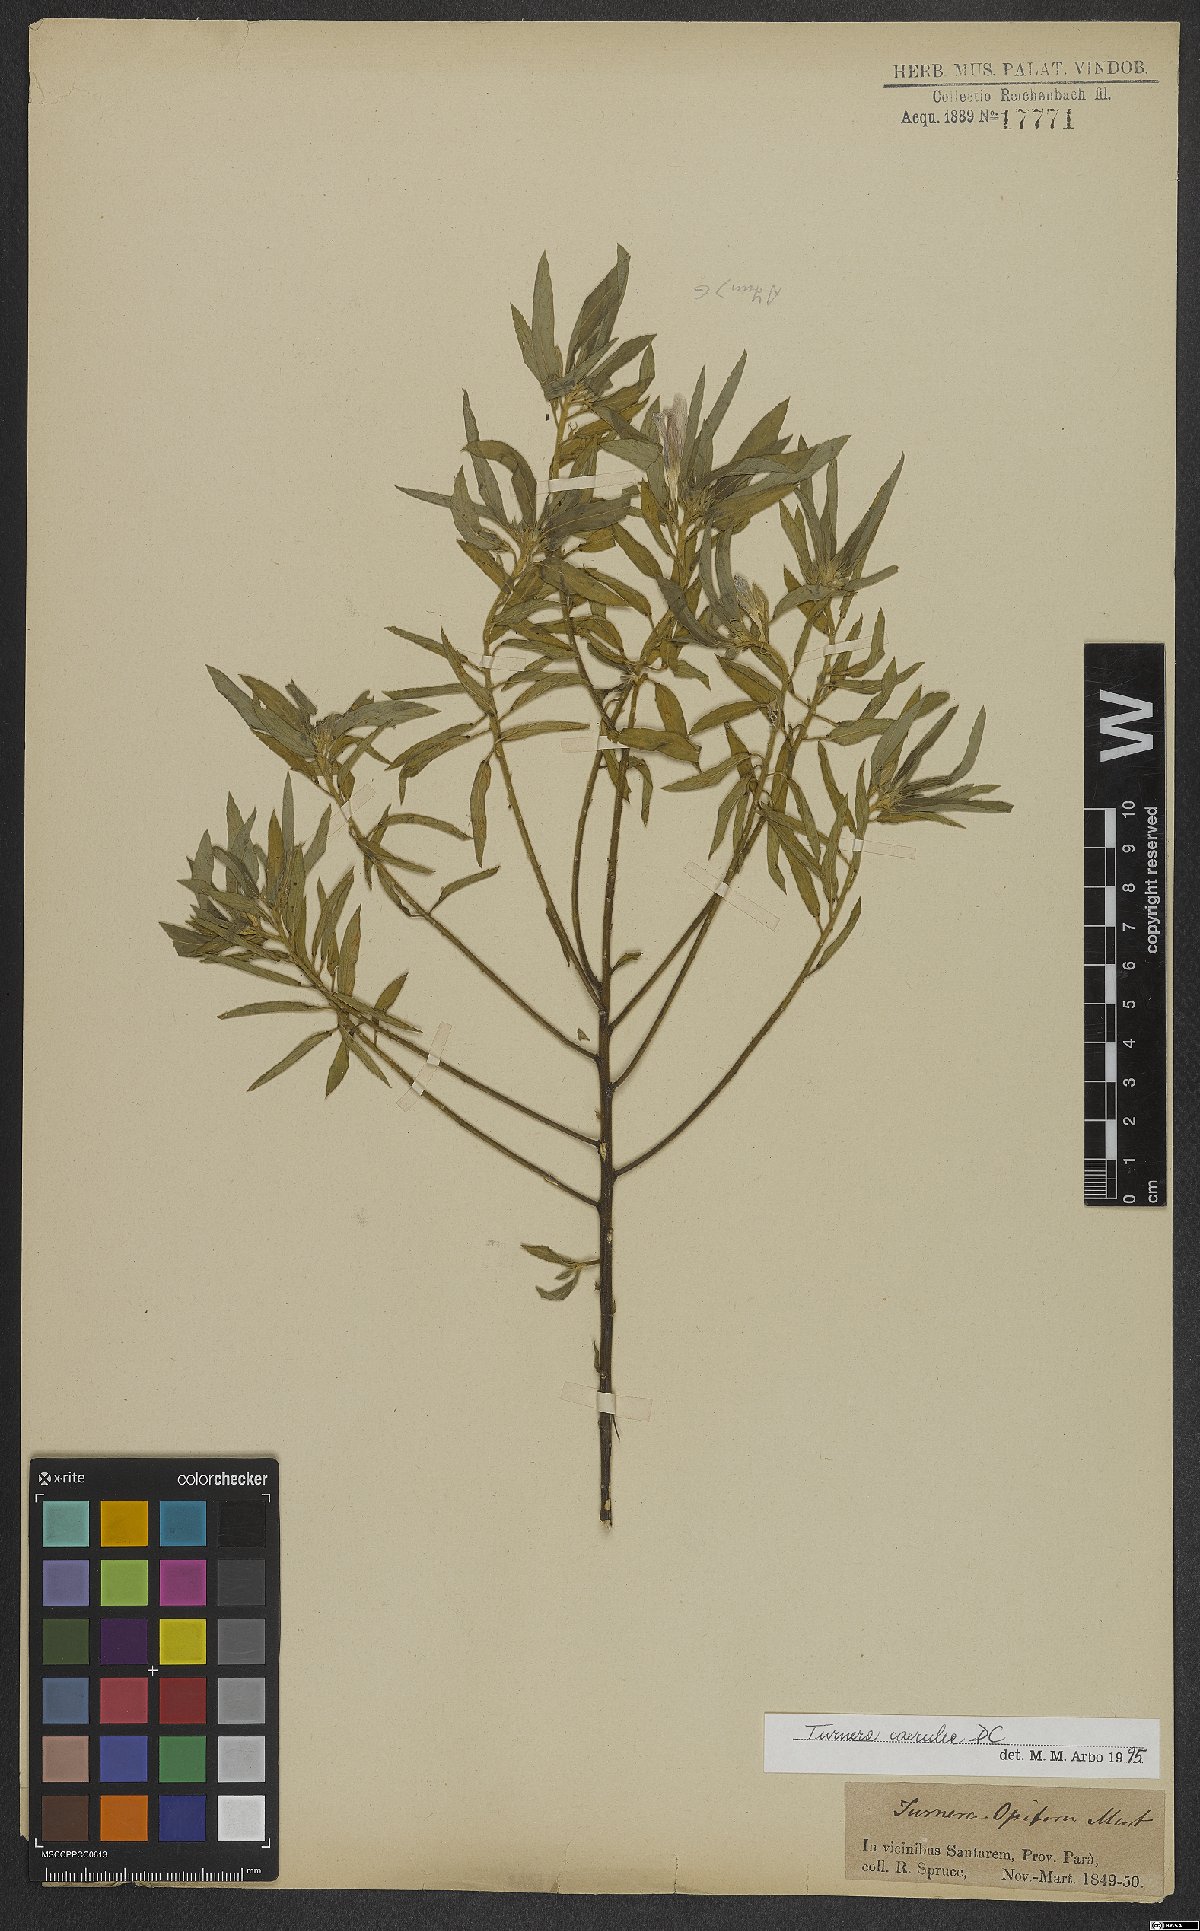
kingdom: Plantae
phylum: Tracheophyta
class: Magnoliopsida
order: Malpighiales
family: Turneraceae
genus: Turnera
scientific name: Turnera coerulea
